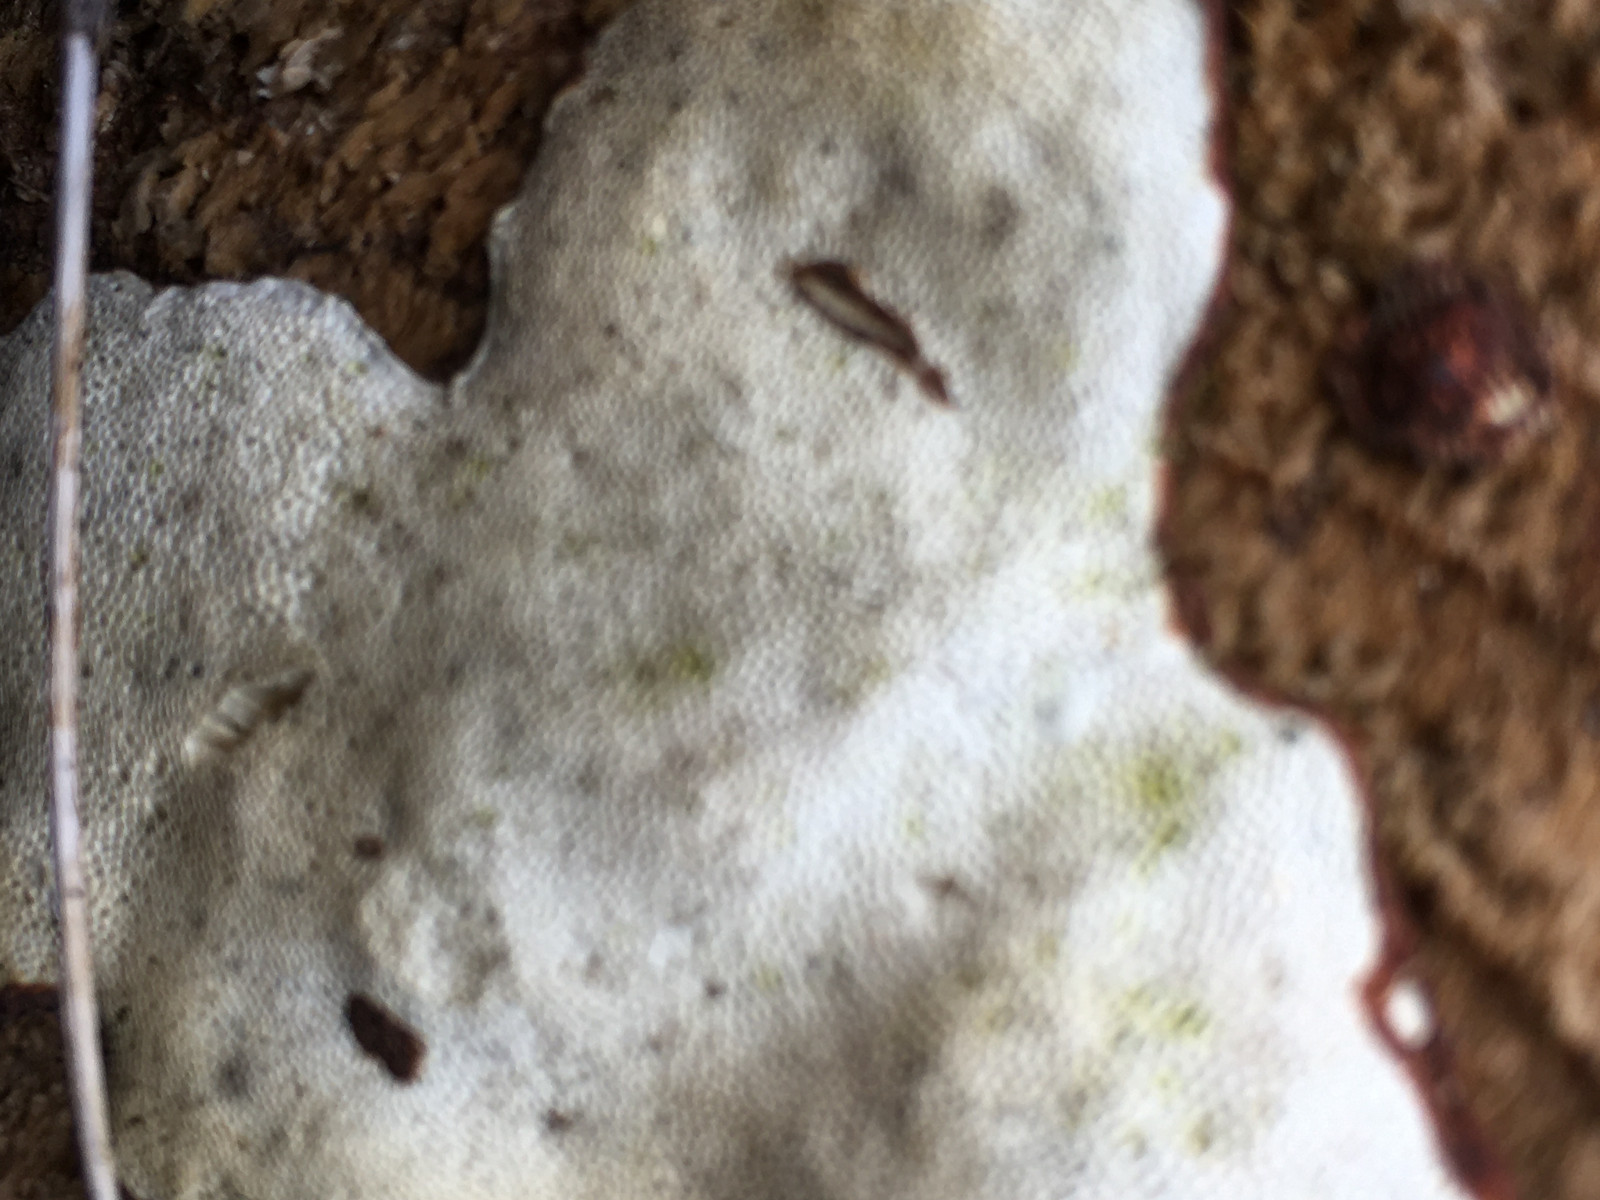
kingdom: Fungi
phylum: Basidiomycota
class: Agaricomycetes
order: Polyporales
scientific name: Polyporales
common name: poresvampordenen
